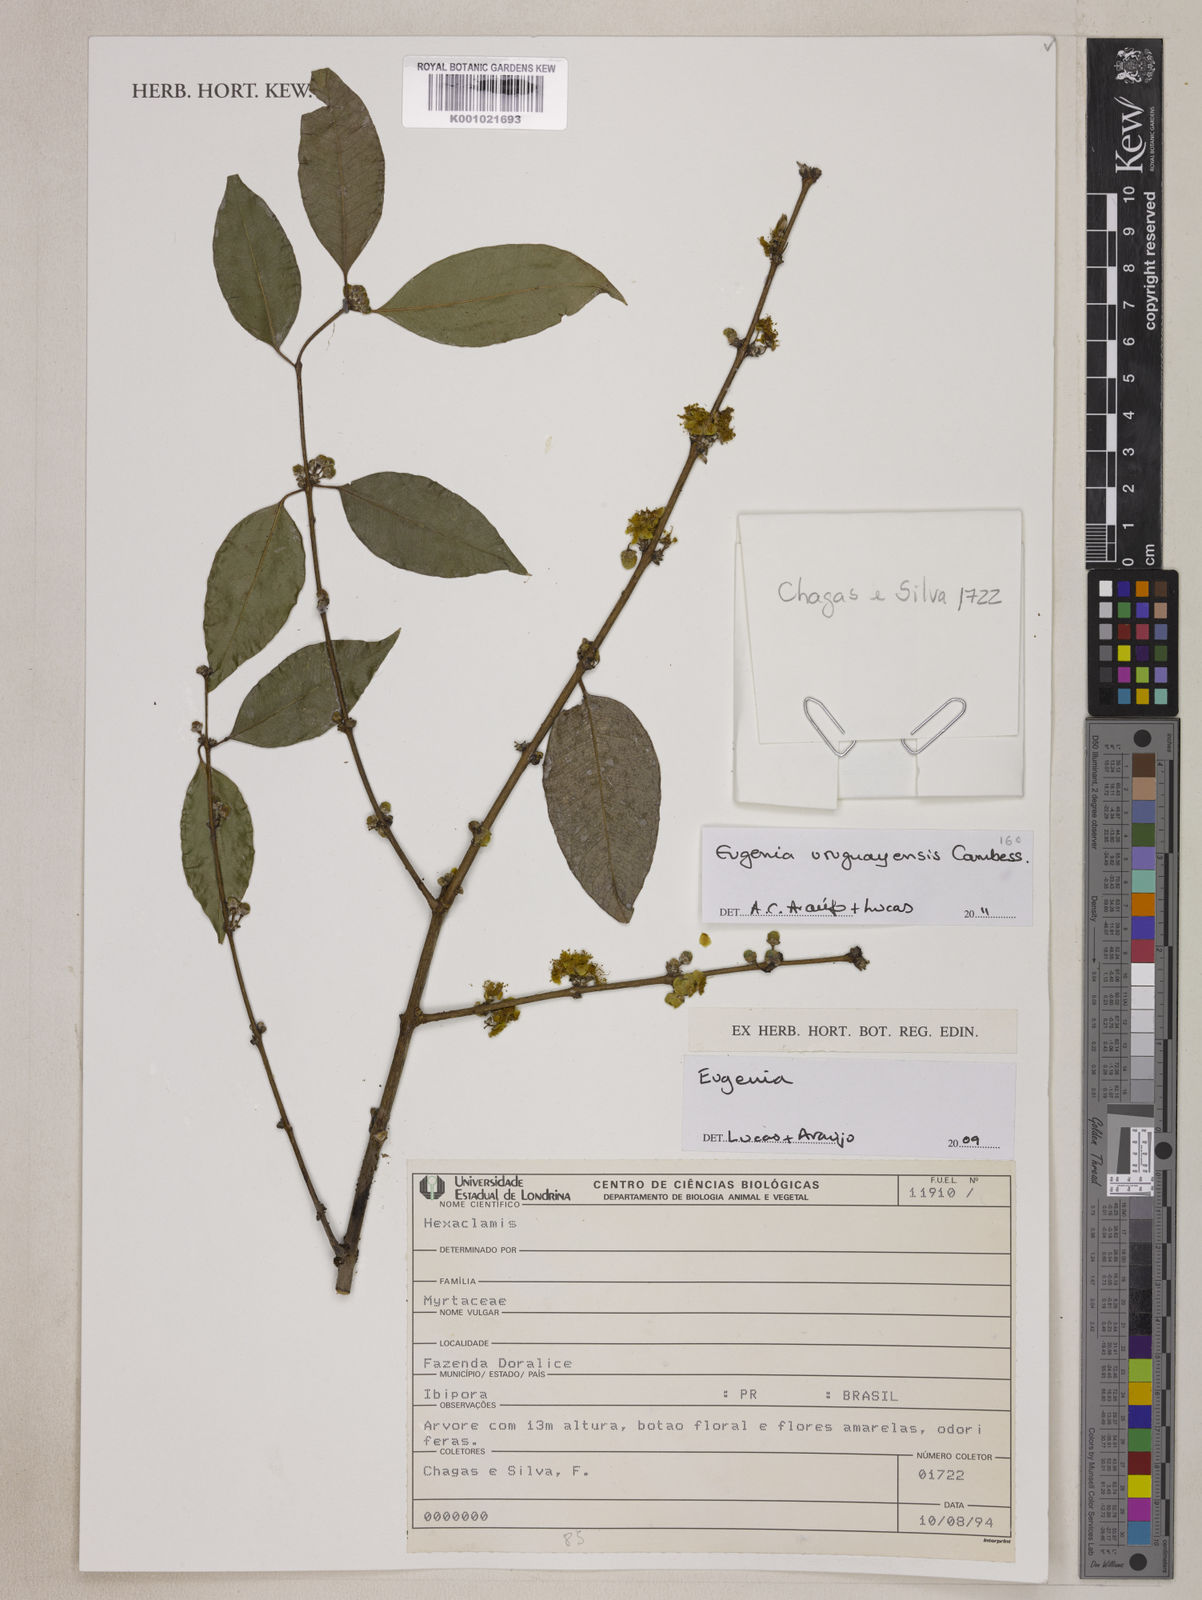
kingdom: Plantae
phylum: Tracheophyta
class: Magnoliopsida
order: Myrtales
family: Myrtaceae
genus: Eugenia
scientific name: Eugenia uruguayensis
